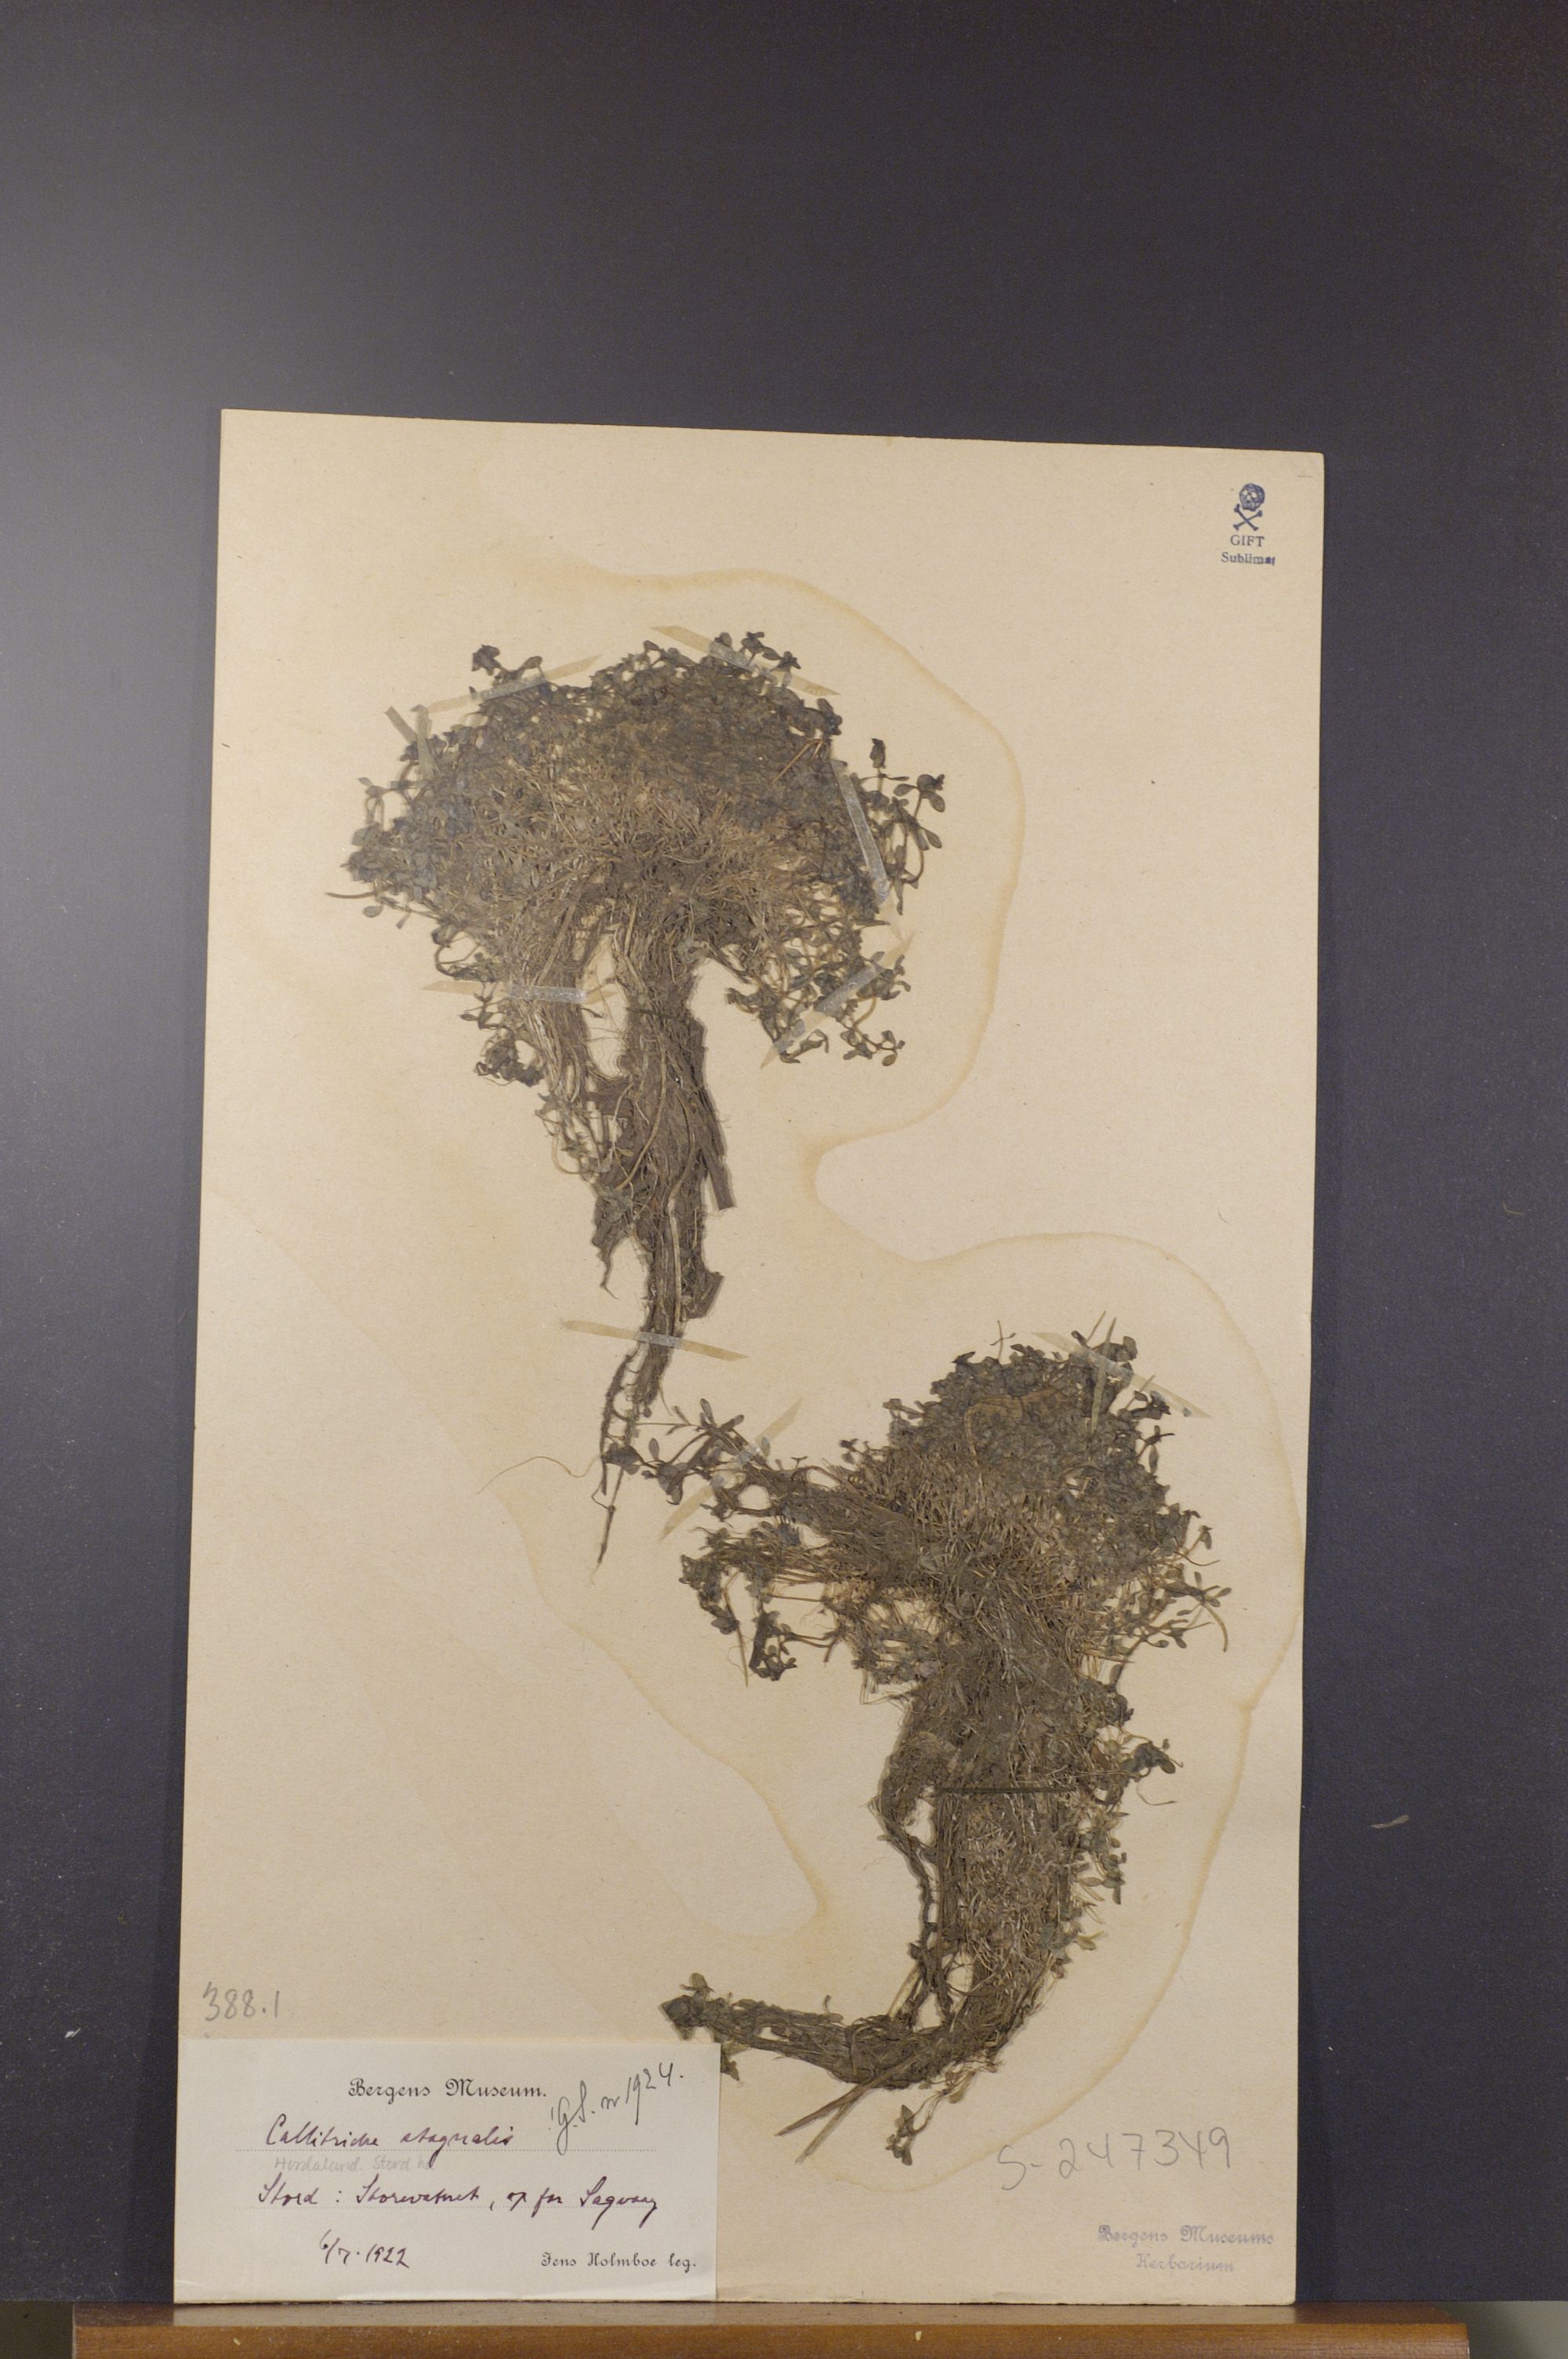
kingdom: Plantae
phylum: Tracheophyta
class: Magnoliopsida
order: Lamiales
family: Plantaginaceae
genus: Callitriche
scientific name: Callitriche stagnalis
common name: Common water-starwort
